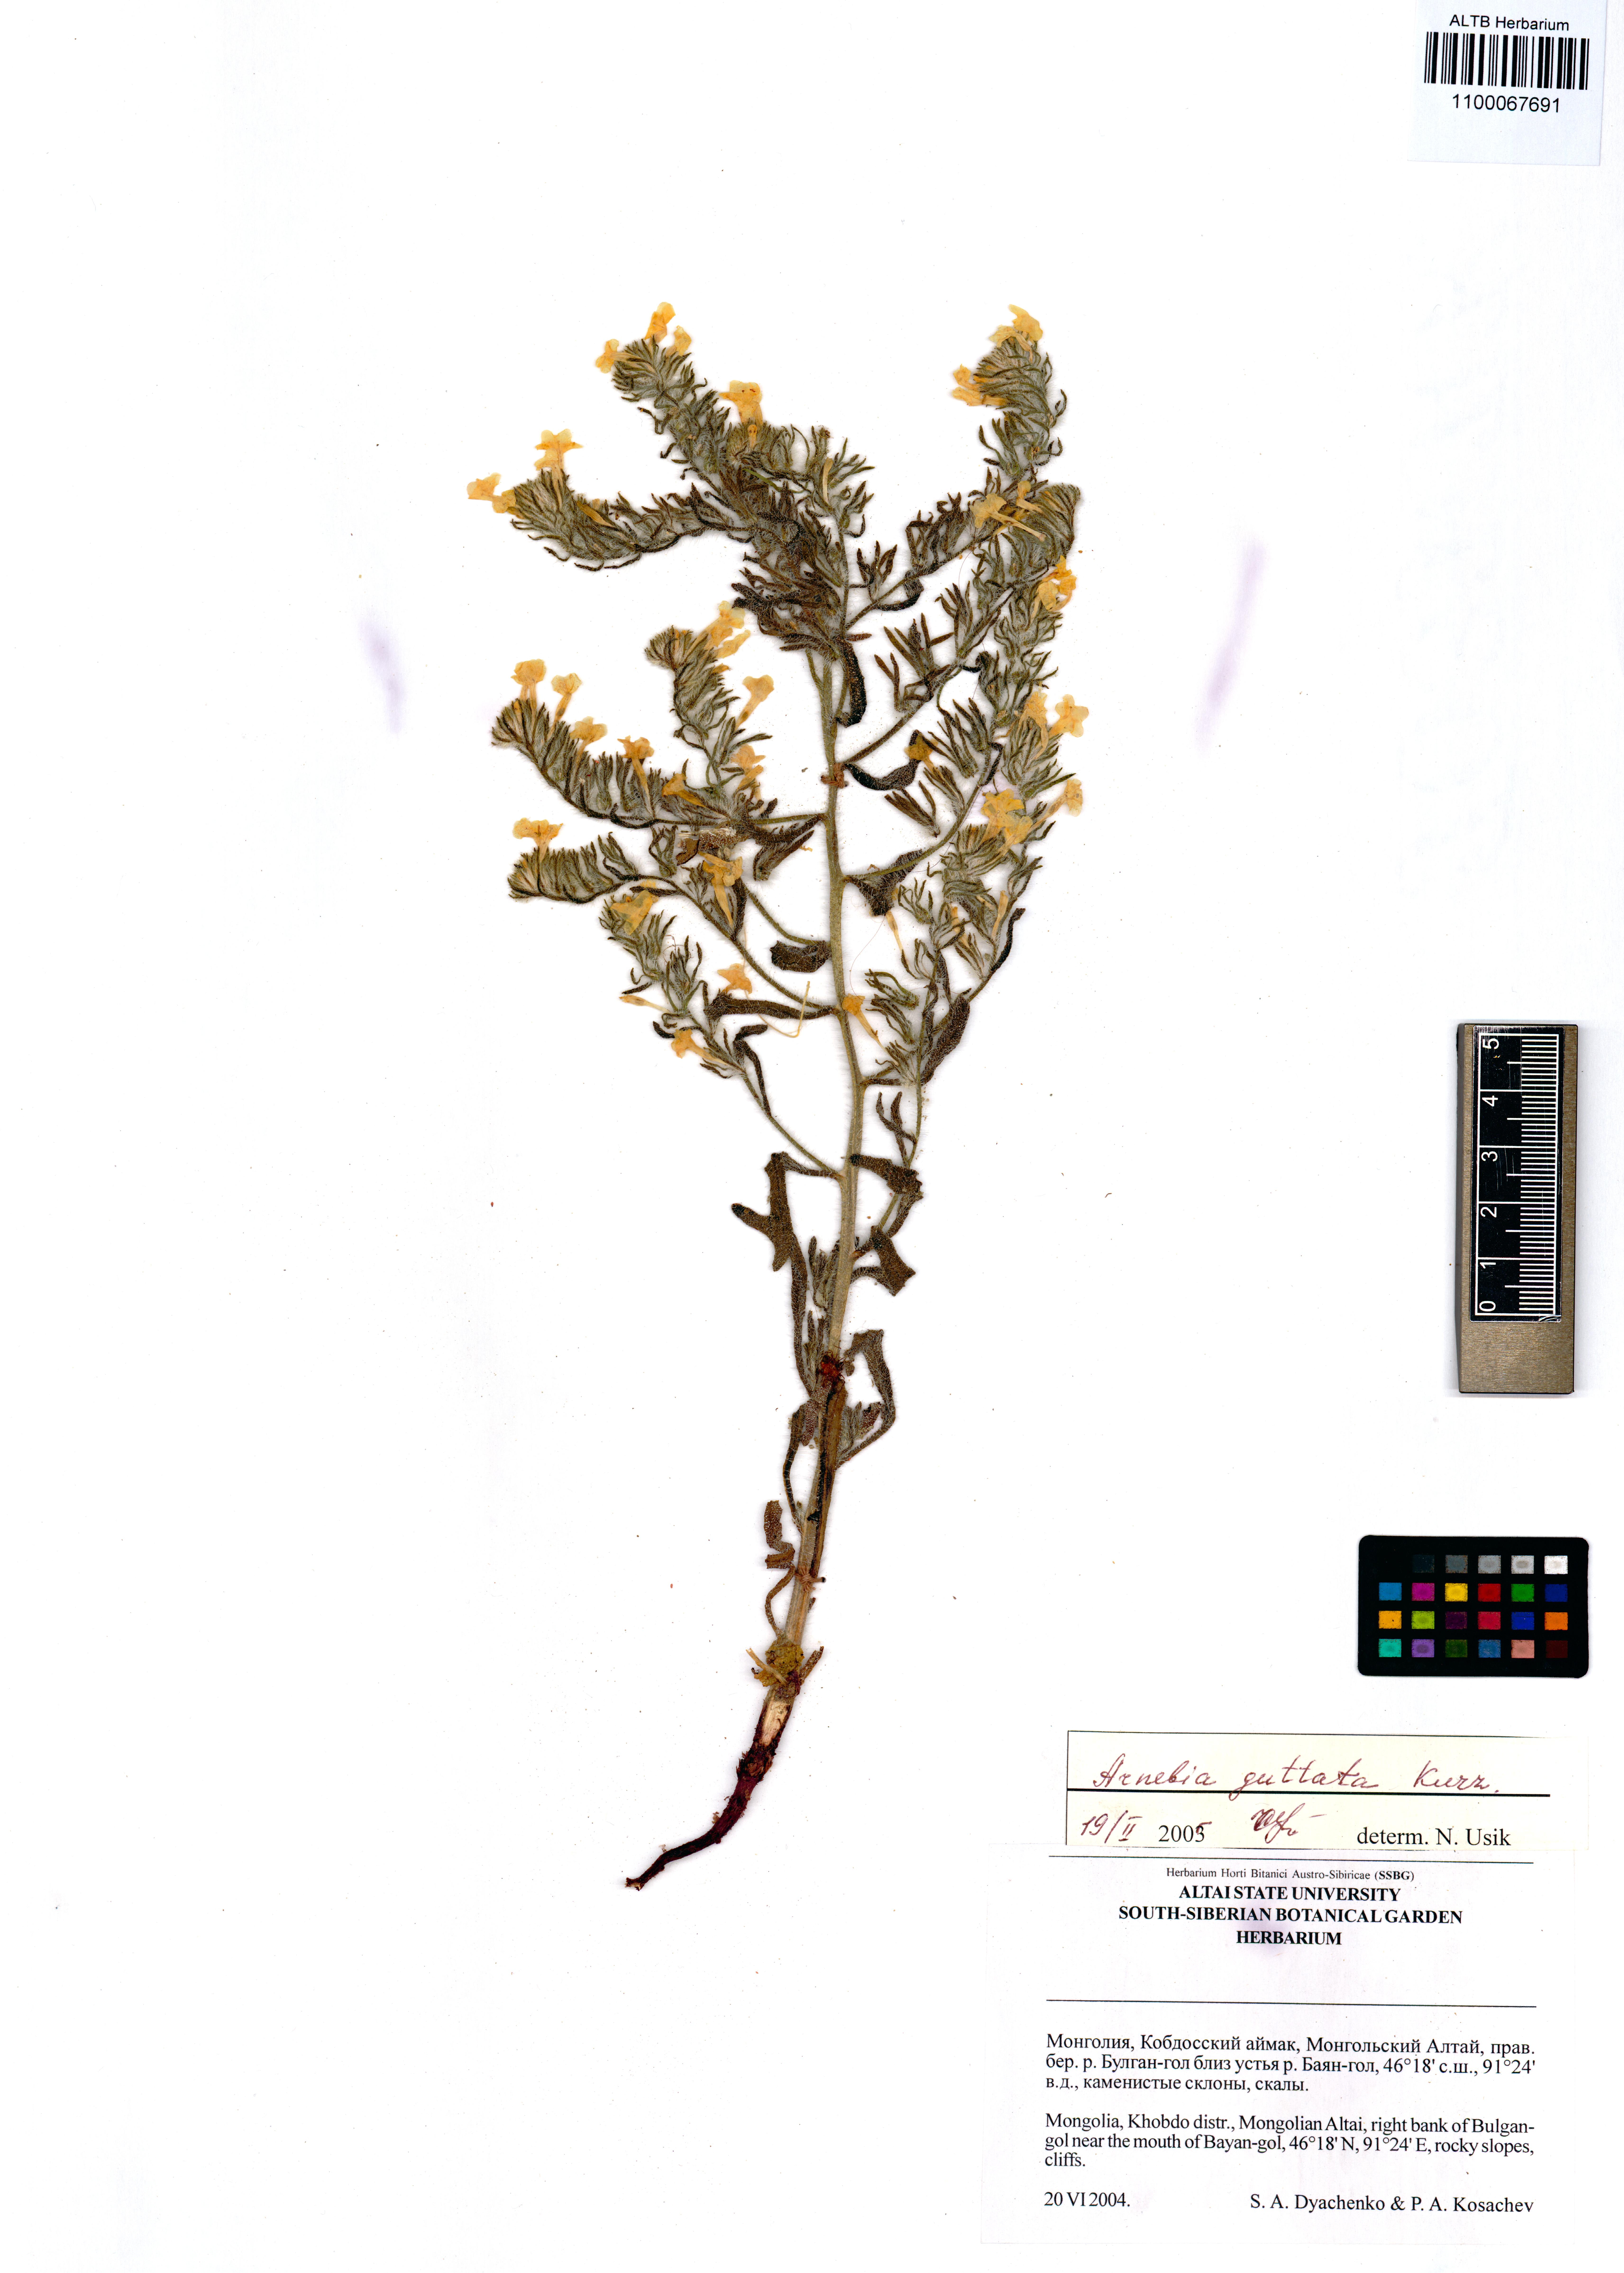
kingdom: Plantae
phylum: Tracheophyta
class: Magnoliopsida
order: Boraginales
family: Boraginaceae
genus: Arnebia
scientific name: Arnebia guttata
